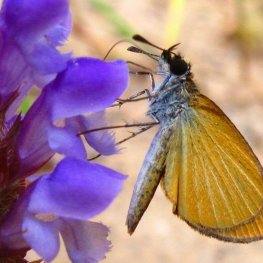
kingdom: Animalia
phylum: Arthropoda
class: Insecta
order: Lepidoptera
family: Hesperiidae
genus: Ancyloxypha
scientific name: Ancyloxypha numitor
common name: Least Skipper
